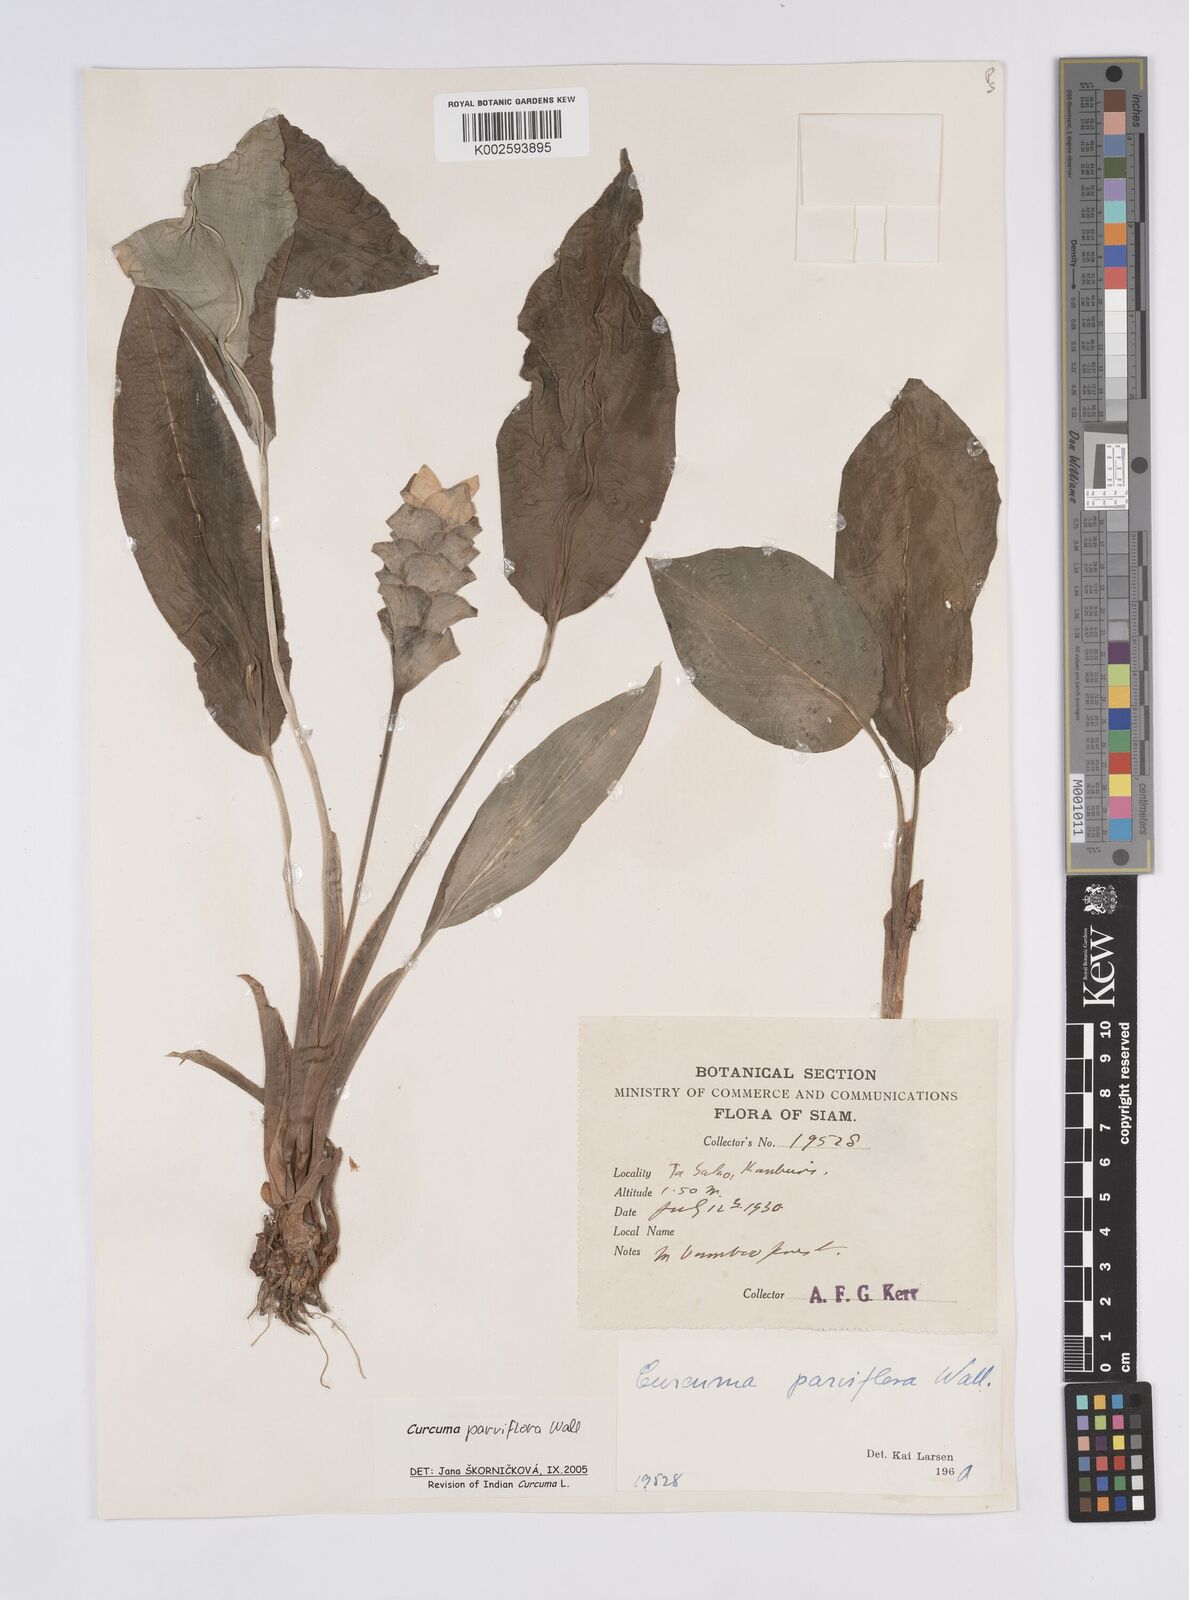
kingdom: Plantae
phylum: Tracheophyta
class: Liliopsida
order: Zingiberales
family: Zingiberaceae
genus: Curcuma
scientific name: Curcuma parviflora
